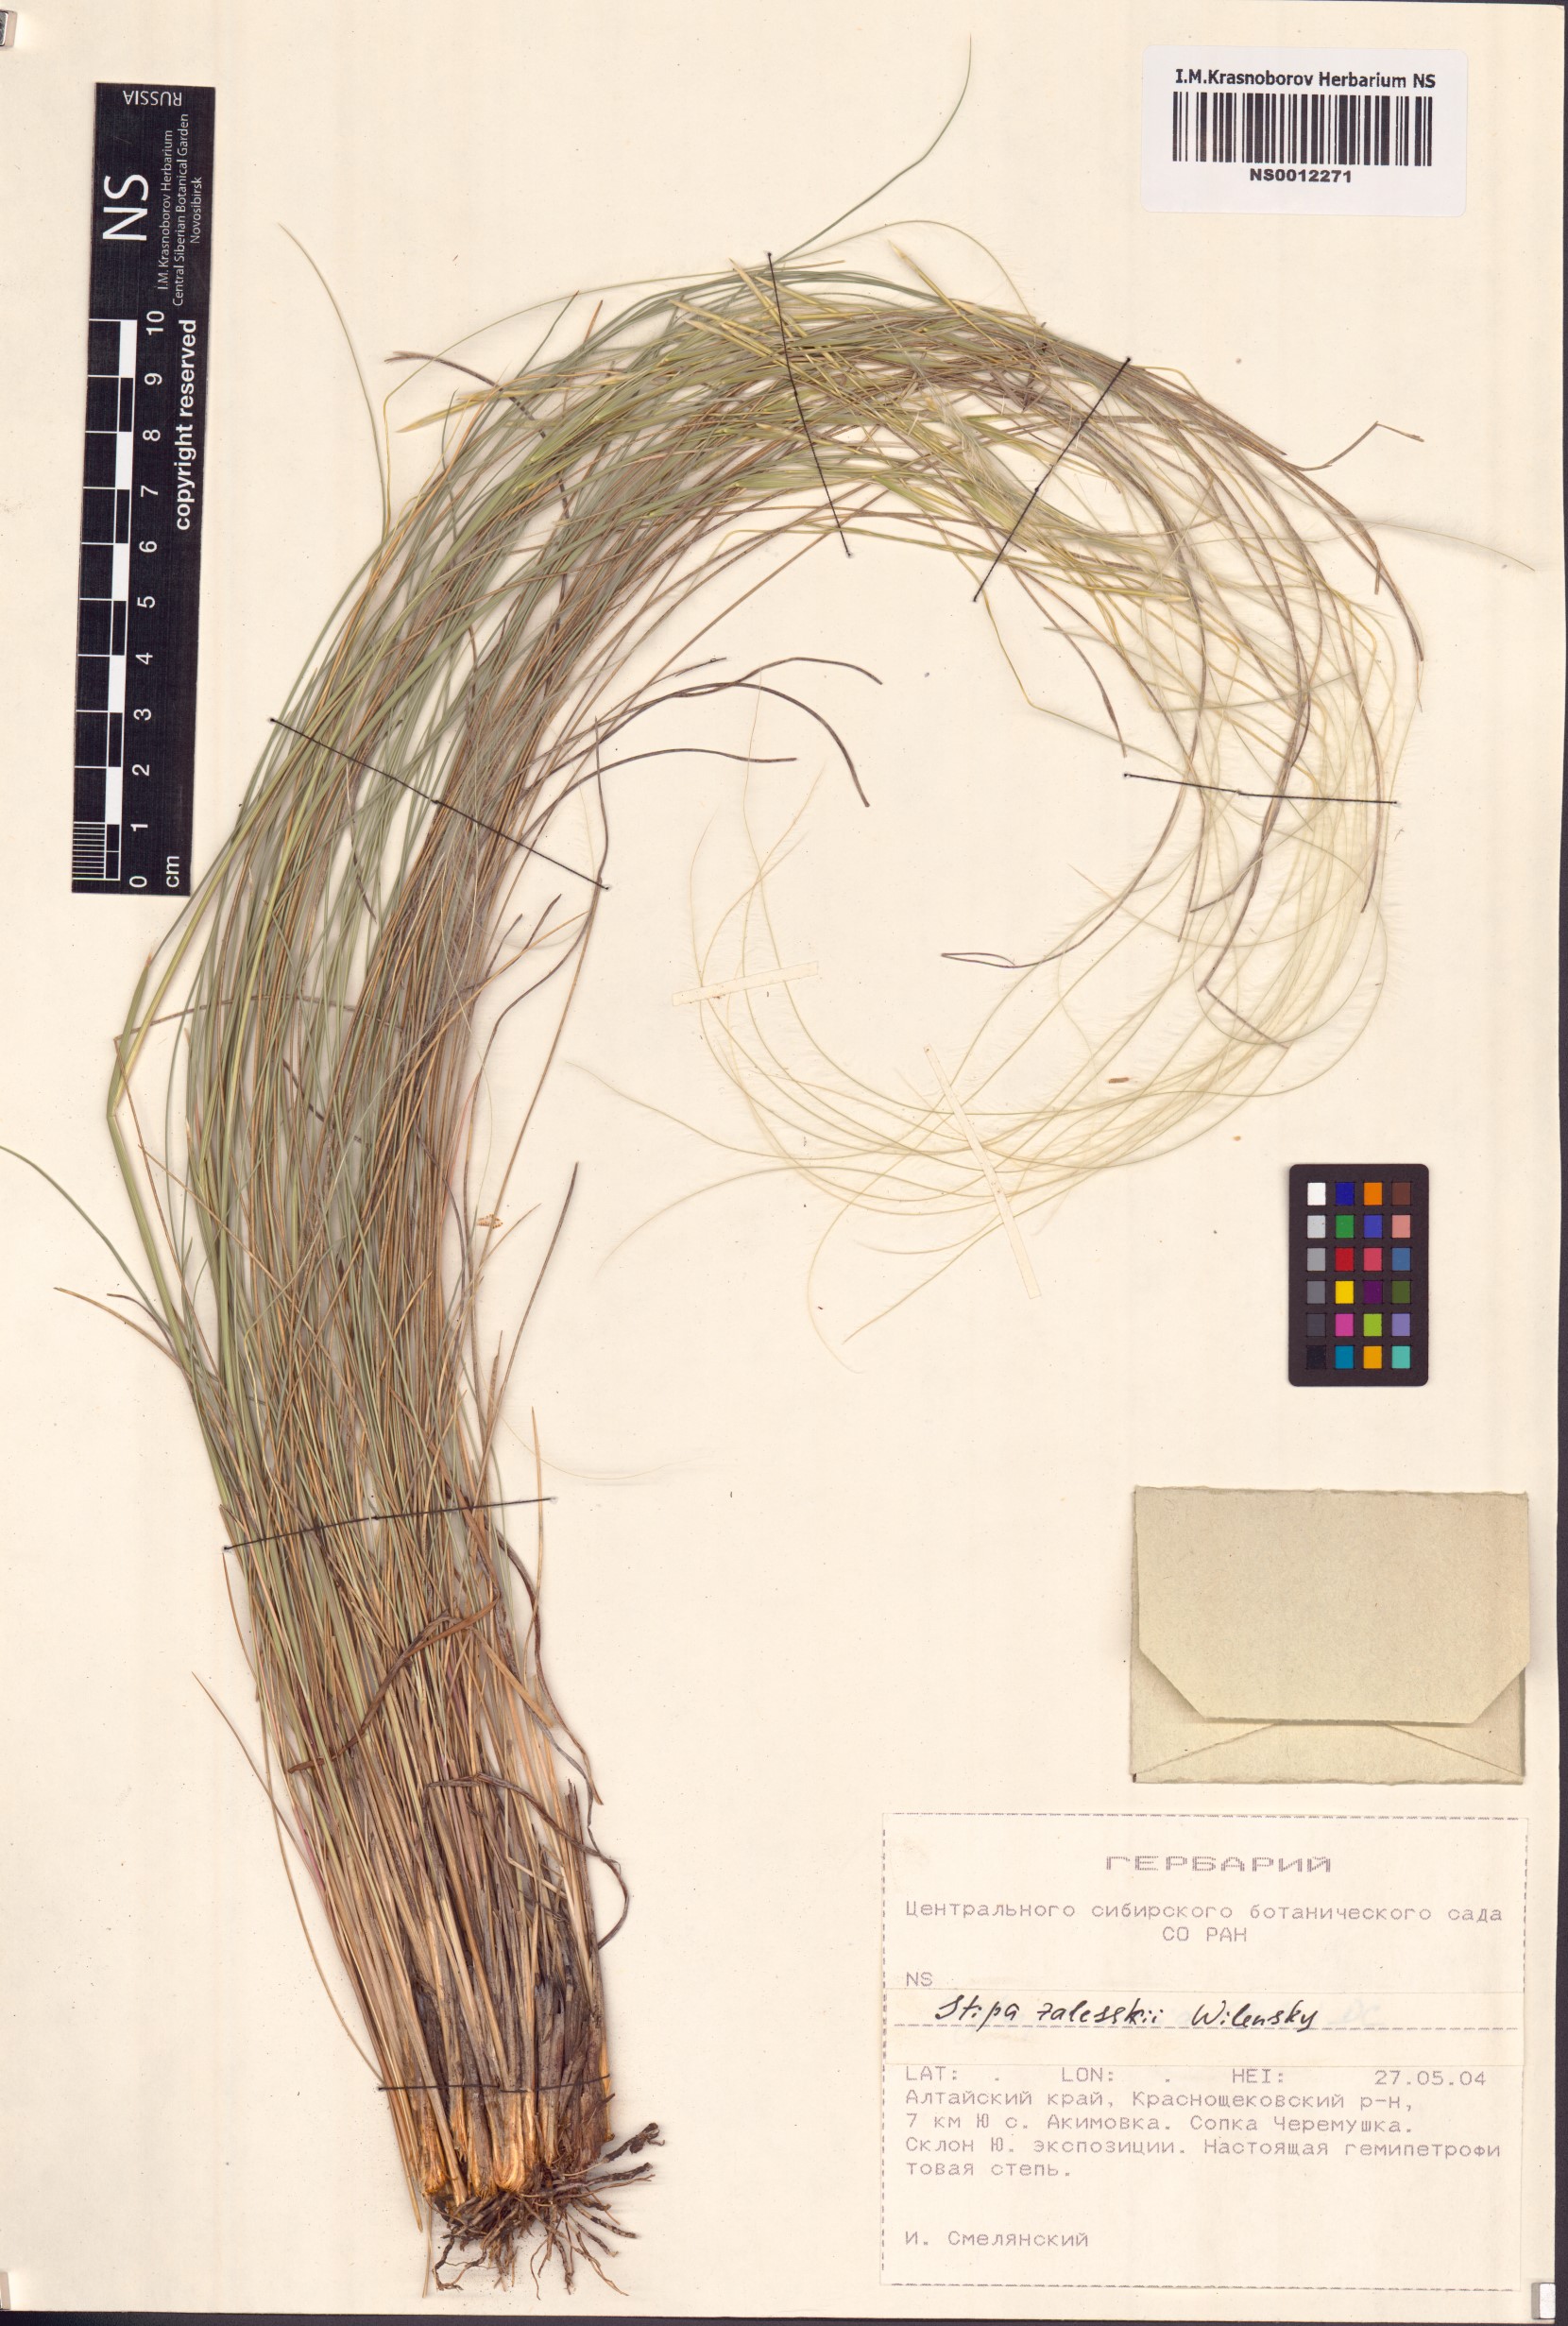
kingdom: Plantae
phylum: Tracheophyta
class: Liliopsida
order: Poales
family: Poaceae
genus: Stipa
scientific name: Stipa zalesskii
